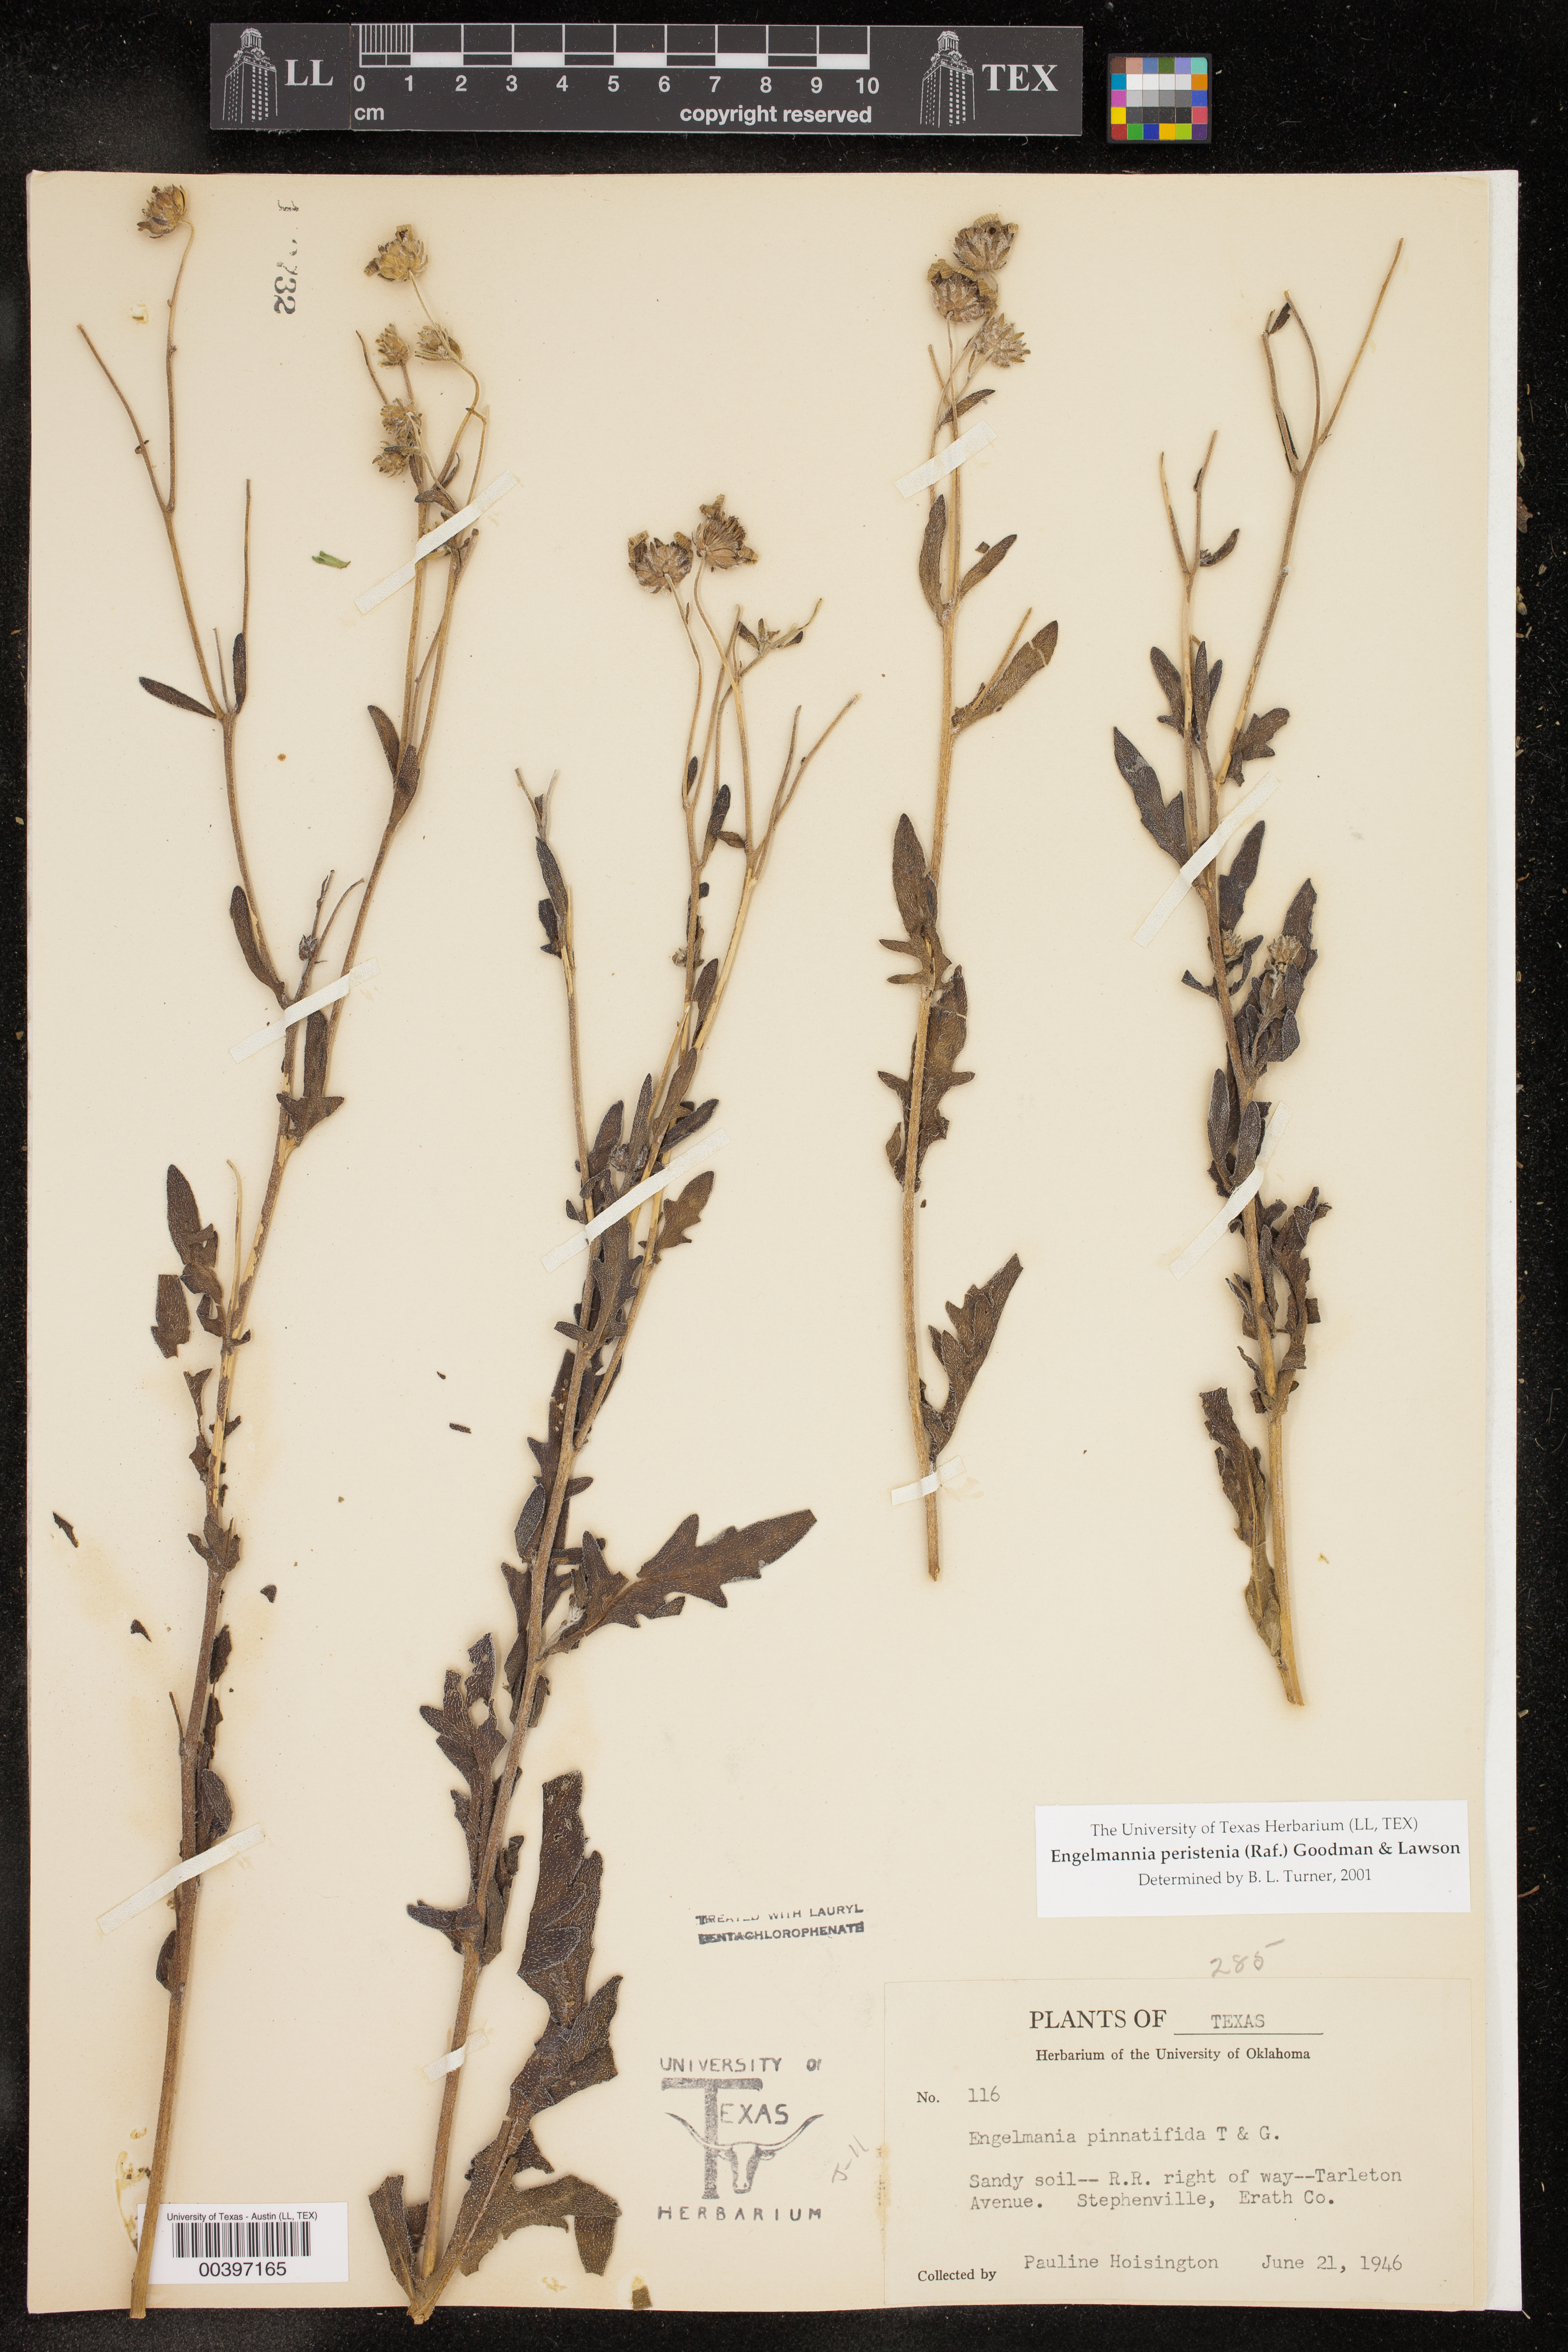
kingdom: Plantae
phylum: Tracheophyta
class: Magnoliopsida
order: Asterales
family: Asteraceae
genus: Engelmannia
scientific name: Engelmannia peristenia
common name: Engelmann's daisy
